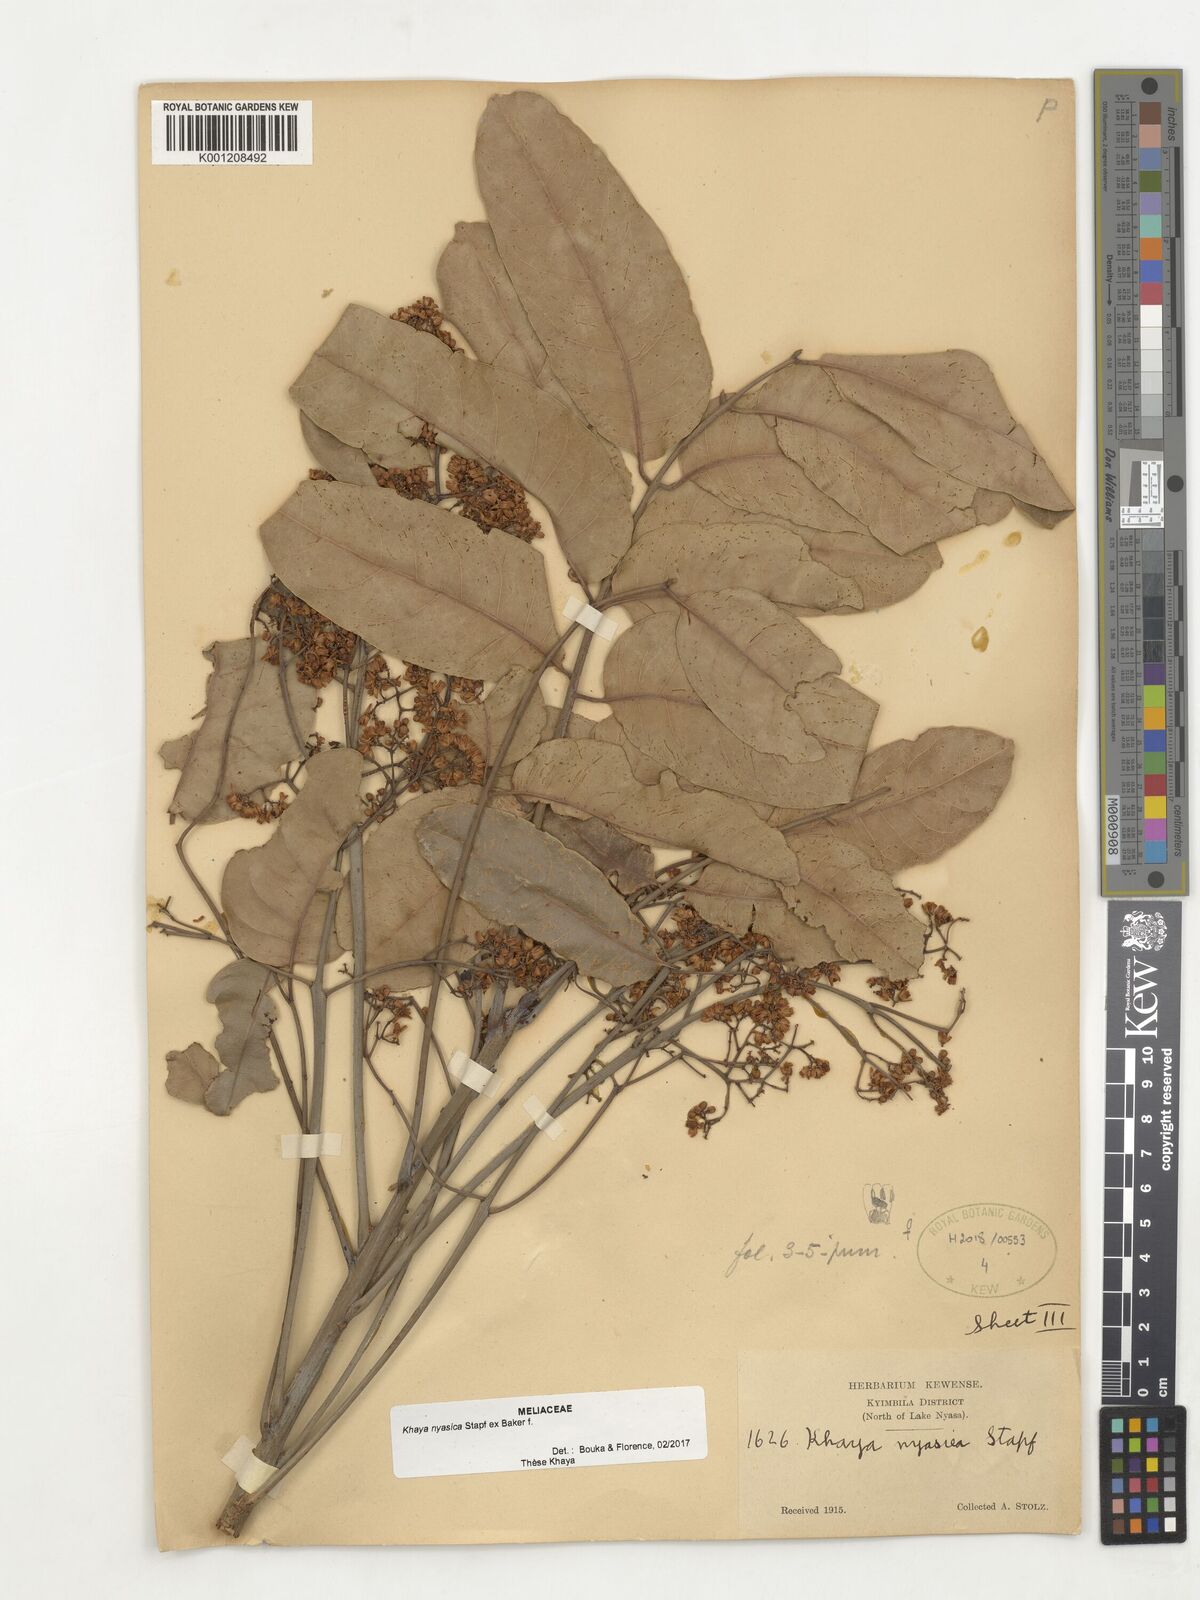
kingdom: Plantae
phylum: Tracheophyta
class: Magnoliopsida
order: Sapindales
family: Meliaceae
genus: Khaya
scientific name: Khaya nyasica
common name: Nyasaland mahogany
